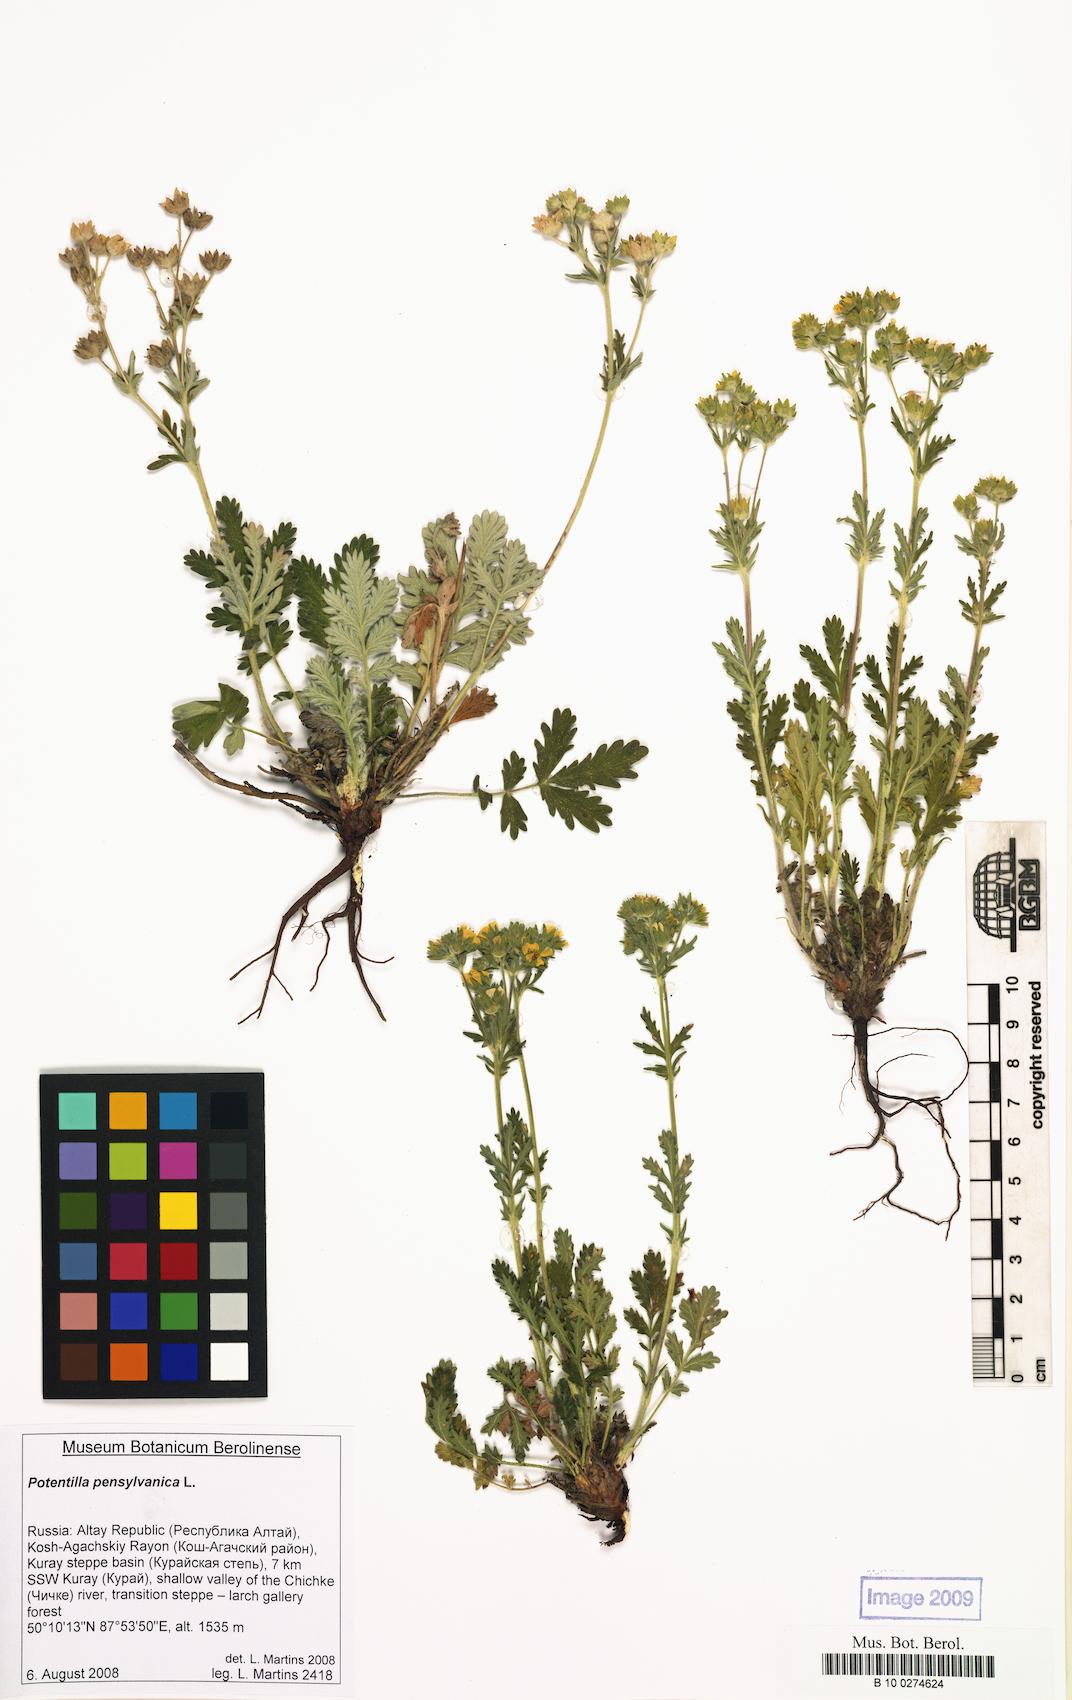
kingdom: Plantae
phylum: Tracheophyta
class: Magnoliopsida
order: Rosales
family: Rosaceae
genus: Potentilla
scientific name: Potentilla pensylvanica
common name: Pennsylvania cinquefoil
